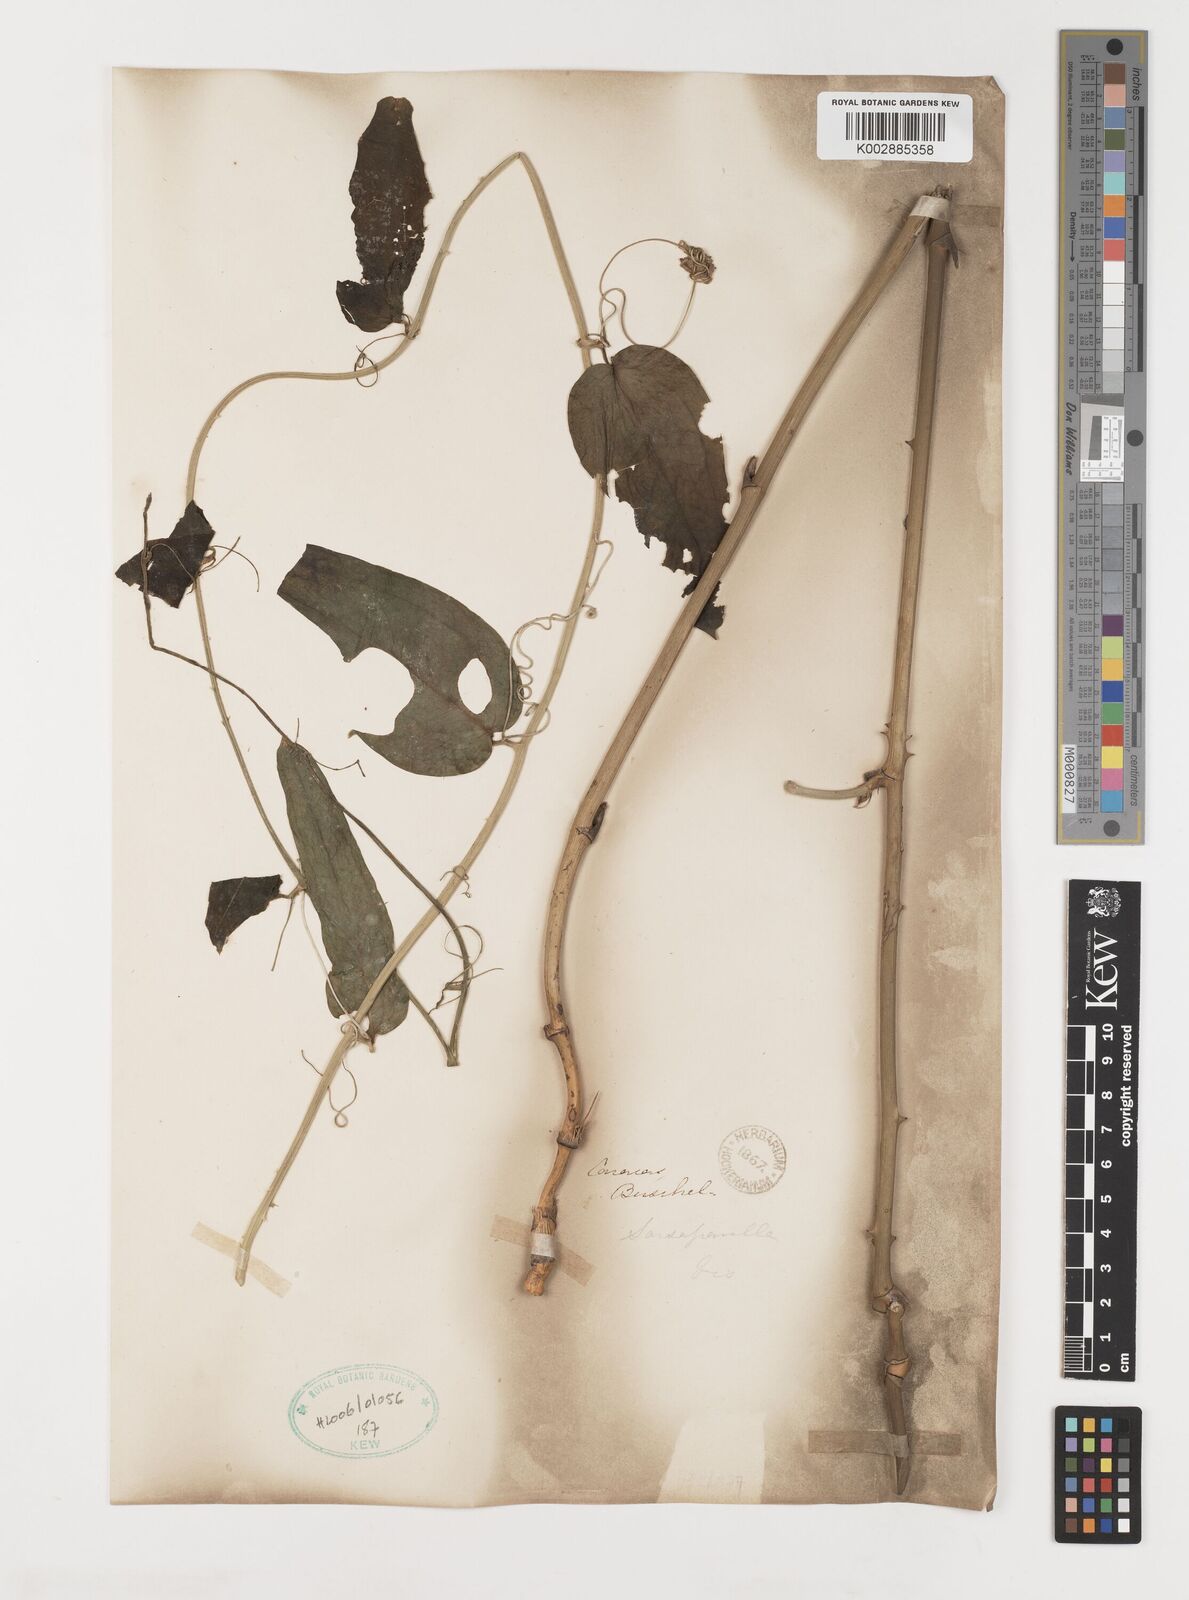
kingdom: Plantae
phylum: Tracheophyta
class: Liliopsida
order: Liliales
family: Smilacaceae
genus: Smilax
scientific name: Smilax
